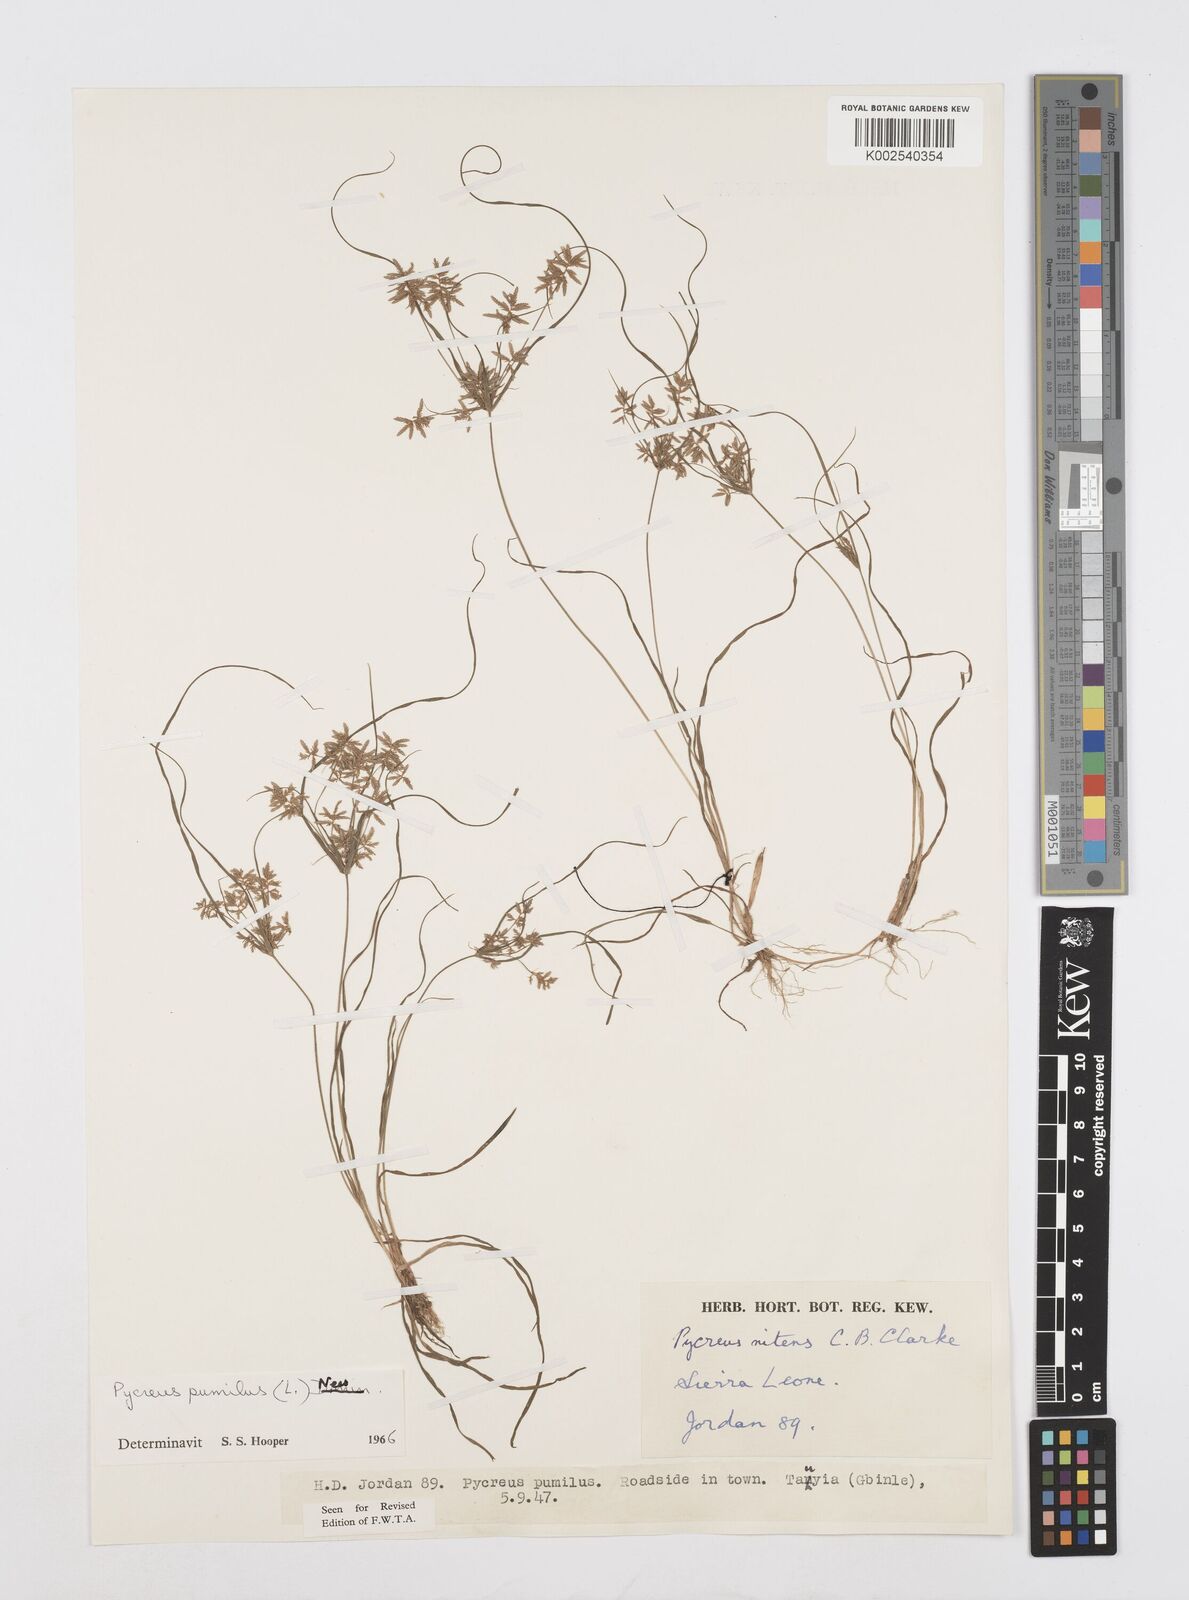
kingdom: Plantae
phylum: Tracheophyta
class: Liliopsida
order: Poales
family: Cyperaceae
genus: Cyperus
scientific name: Cyperus pumilus
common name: Low flatsedge
